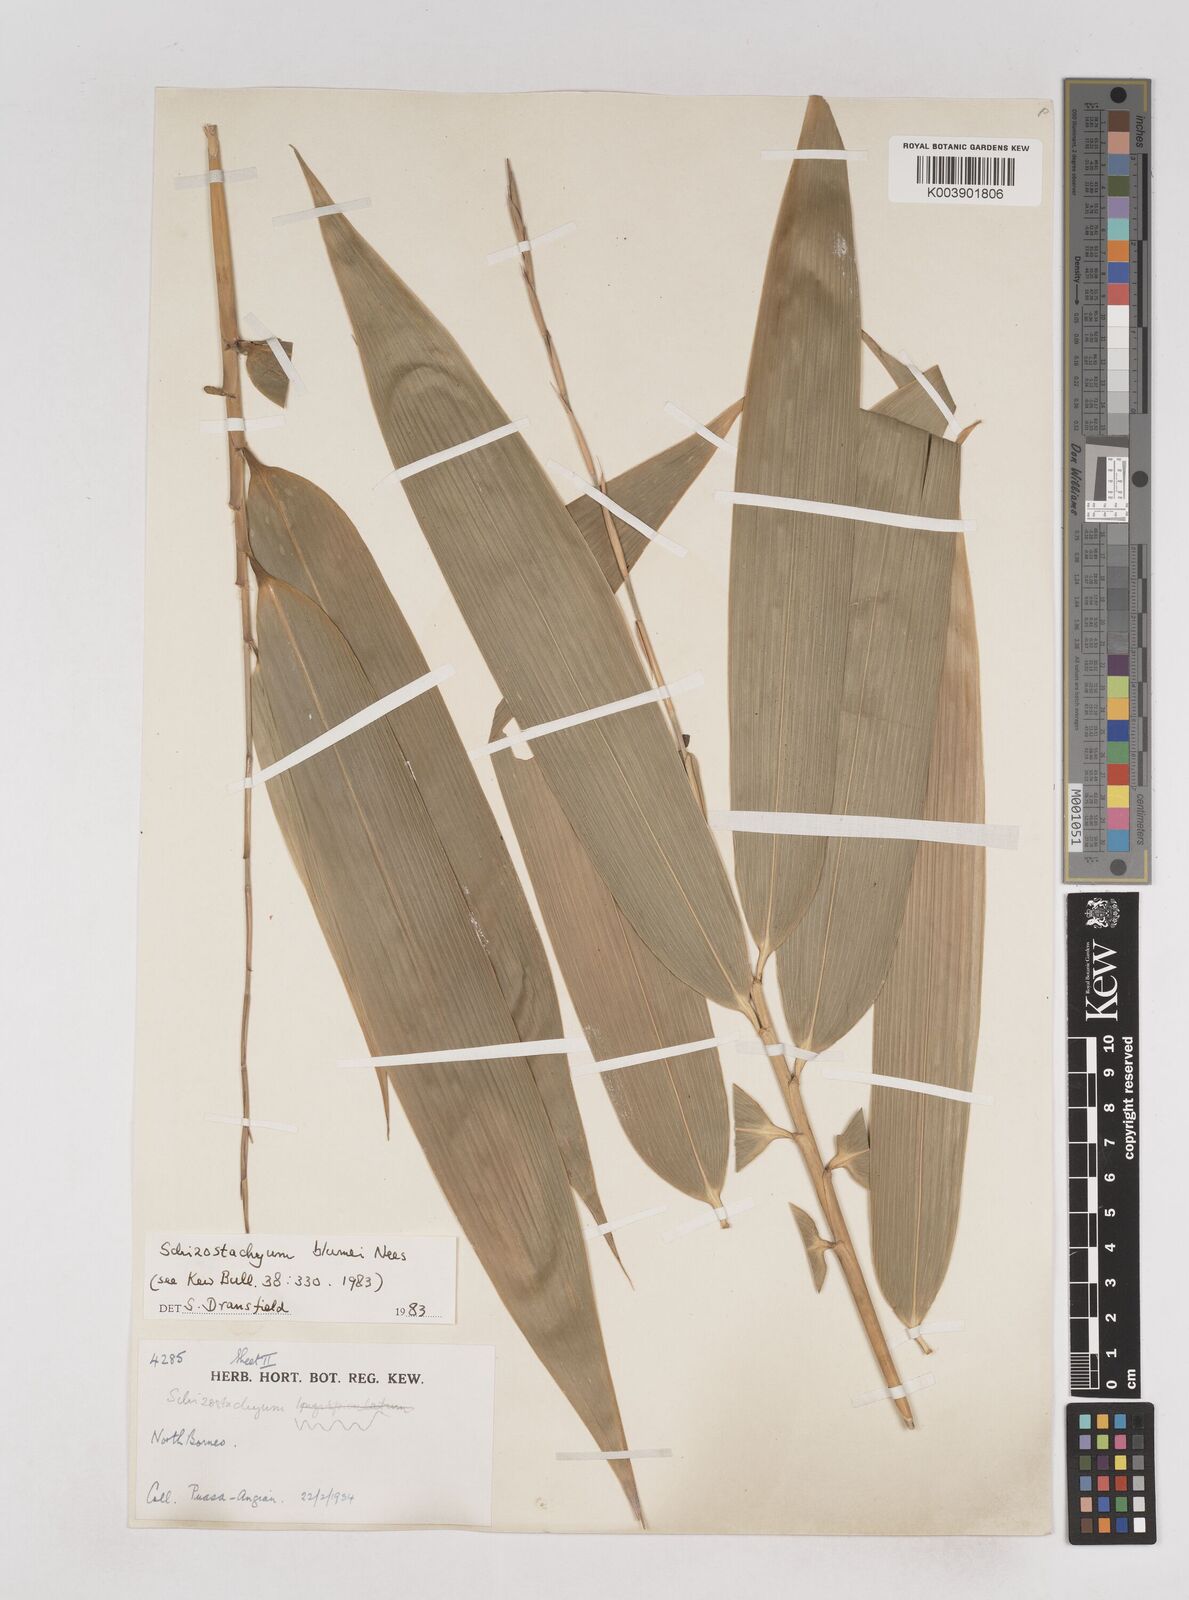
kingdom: Plantae
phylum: Tracheophyta
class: Liliopsida
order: Poales
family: Poaceae
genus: Schizostachyum
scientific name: Schizostachyum blumei
